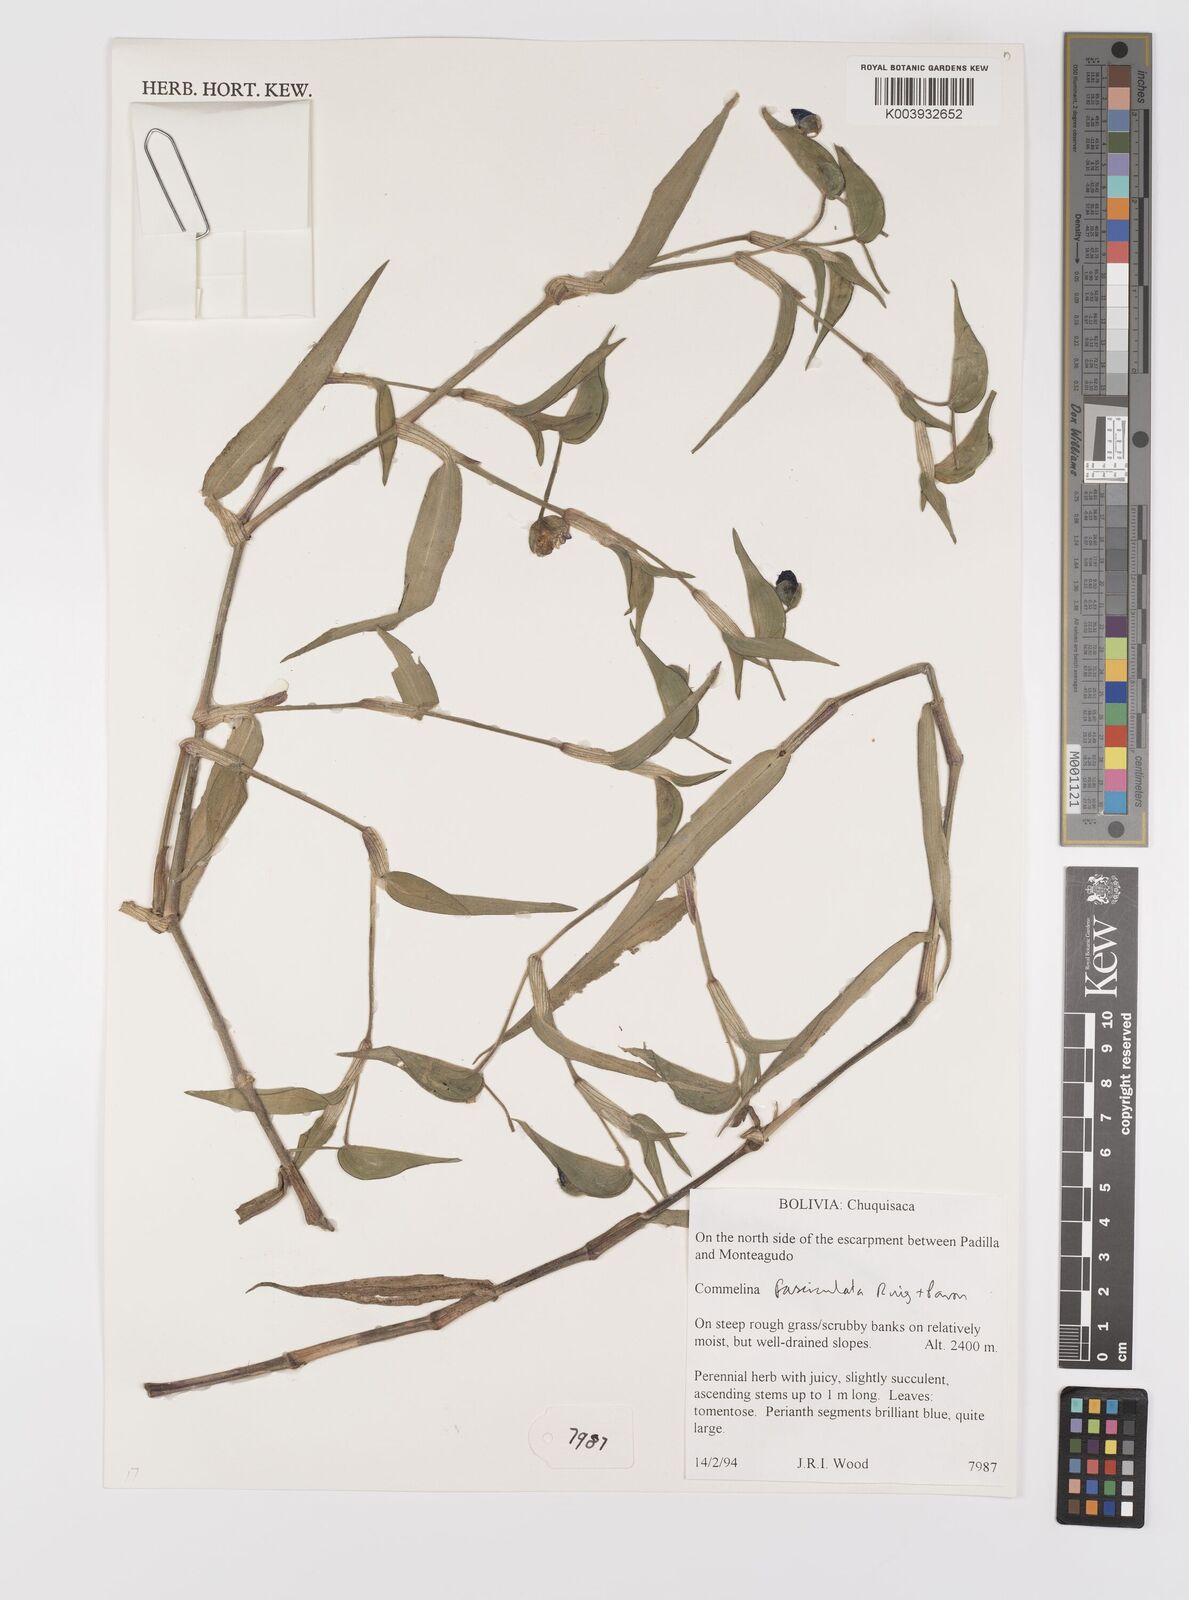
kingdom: Plantae
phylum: Tracheophyta
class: Liliopsida
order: Commelinales
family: Commelinaceae
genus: Commelina
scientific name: Commelina tuberosa
